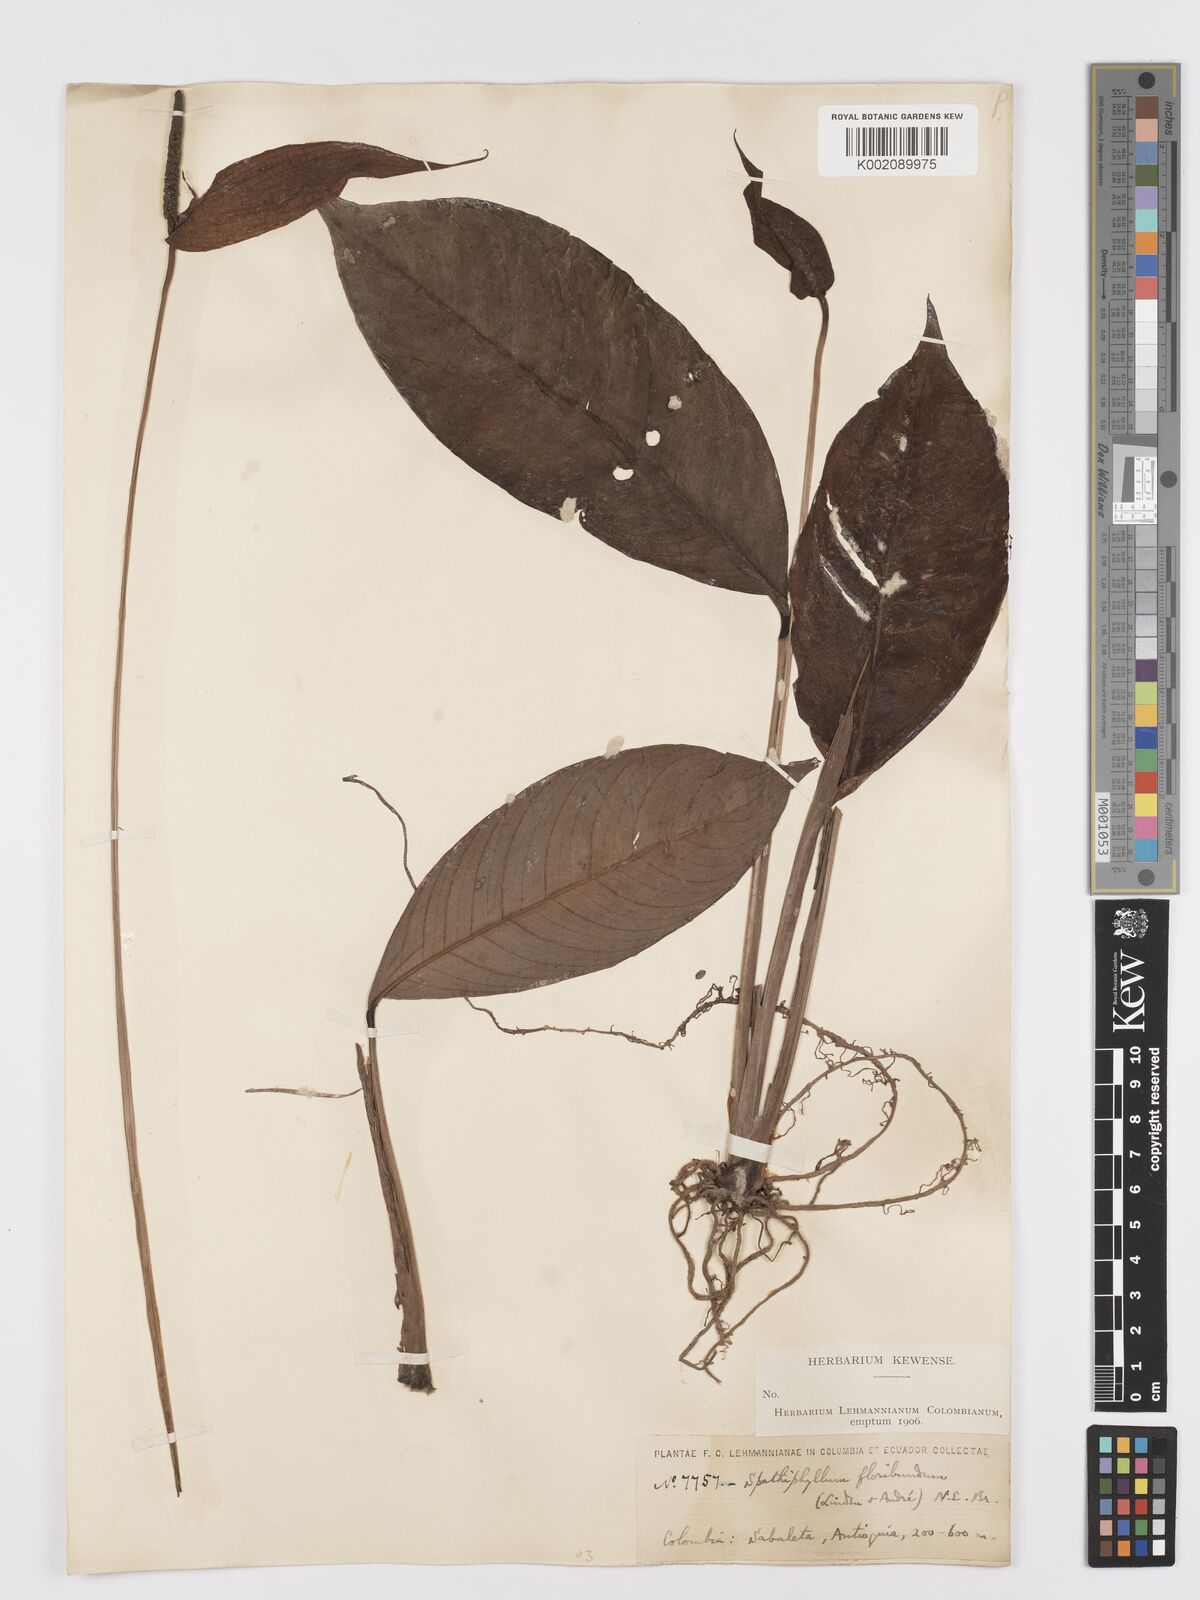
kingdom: Plantae
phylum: Tracheophyta
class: Liliopsida
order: Alismatales
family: Araceae
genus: Spathiphyllum
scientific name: Spathiphyllum floribundum
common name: Peace-lily
